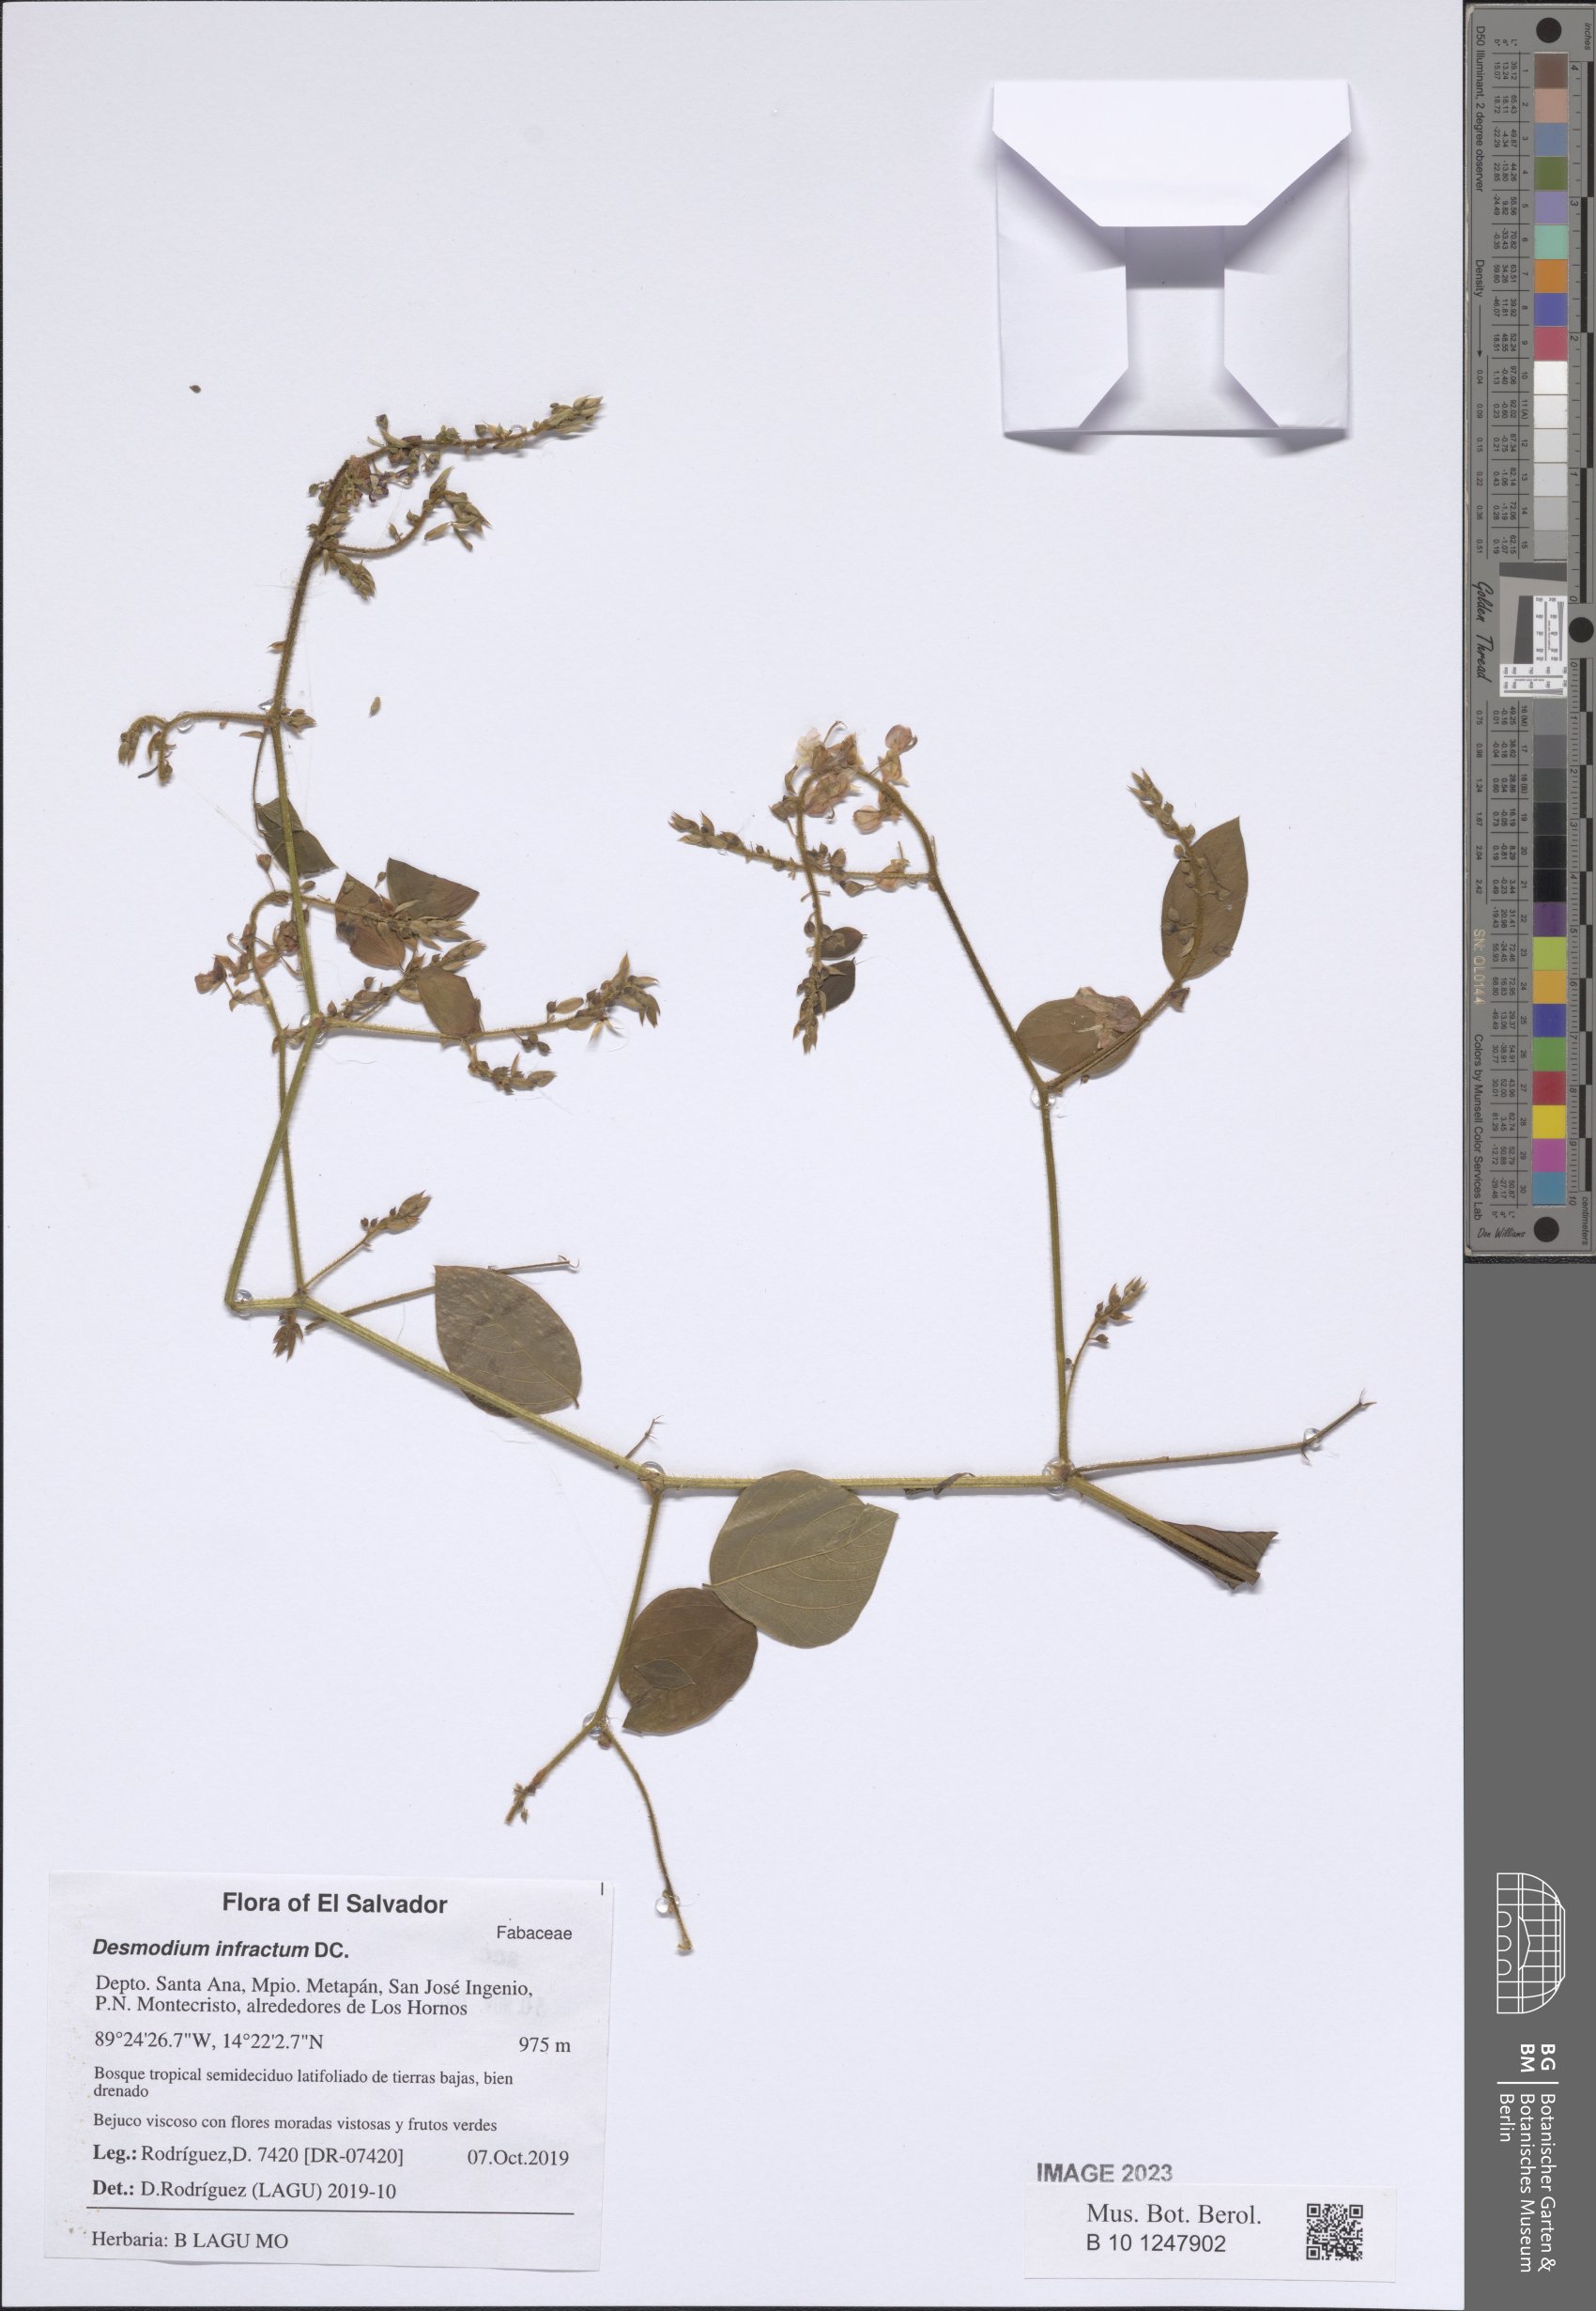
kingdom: Plantae
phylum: Tracheophyta
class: Magnoliopsida
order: Fabales
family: Fabaceae
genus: Desmodium
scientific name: Desmodium infractum
